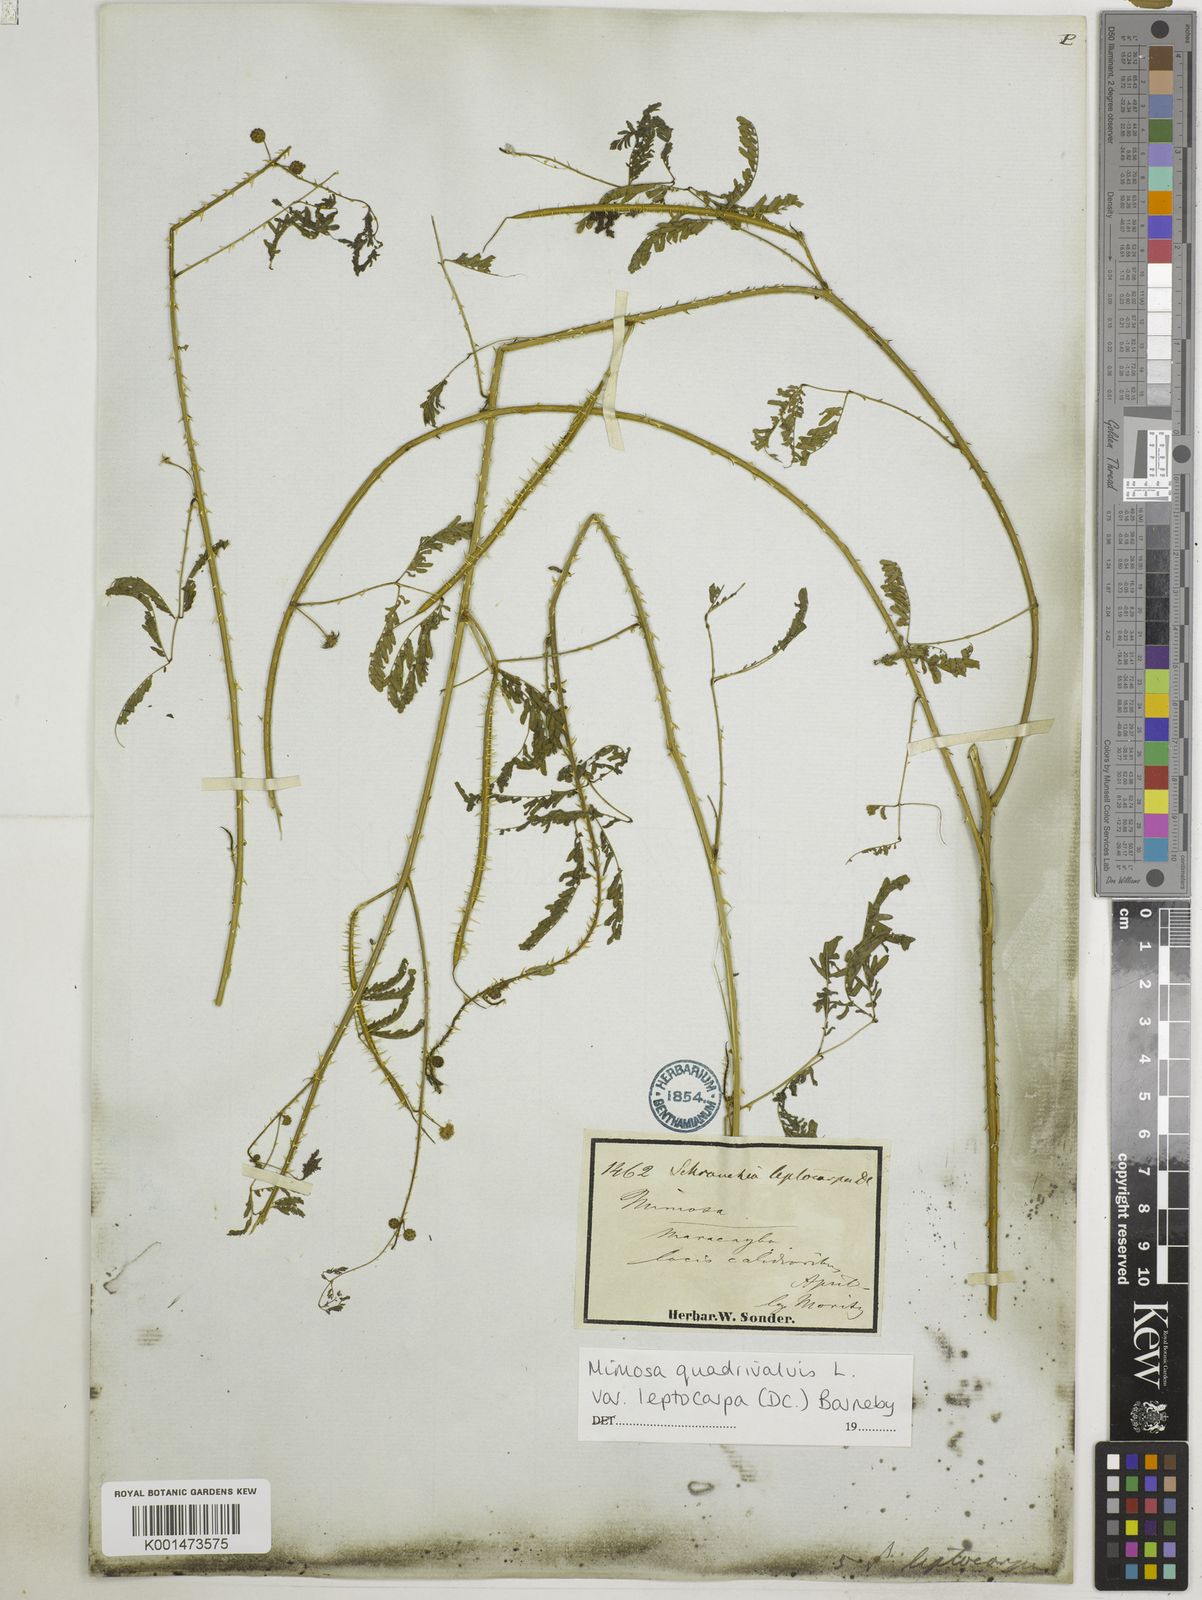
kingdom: Plantae
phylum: Tracheophyta
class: Magnoliopsida
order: Fabales
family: Fabaceae
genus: Mimosa
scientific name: Mimosa candollei
